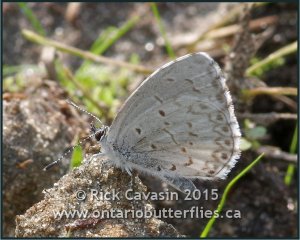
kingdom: Animalia
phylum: Arthropoda
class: Insecta
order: Lepidoptera
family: Lycaenidae
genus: Cyaniris
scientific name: Cyaniris neglecta
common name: Summer Azure
